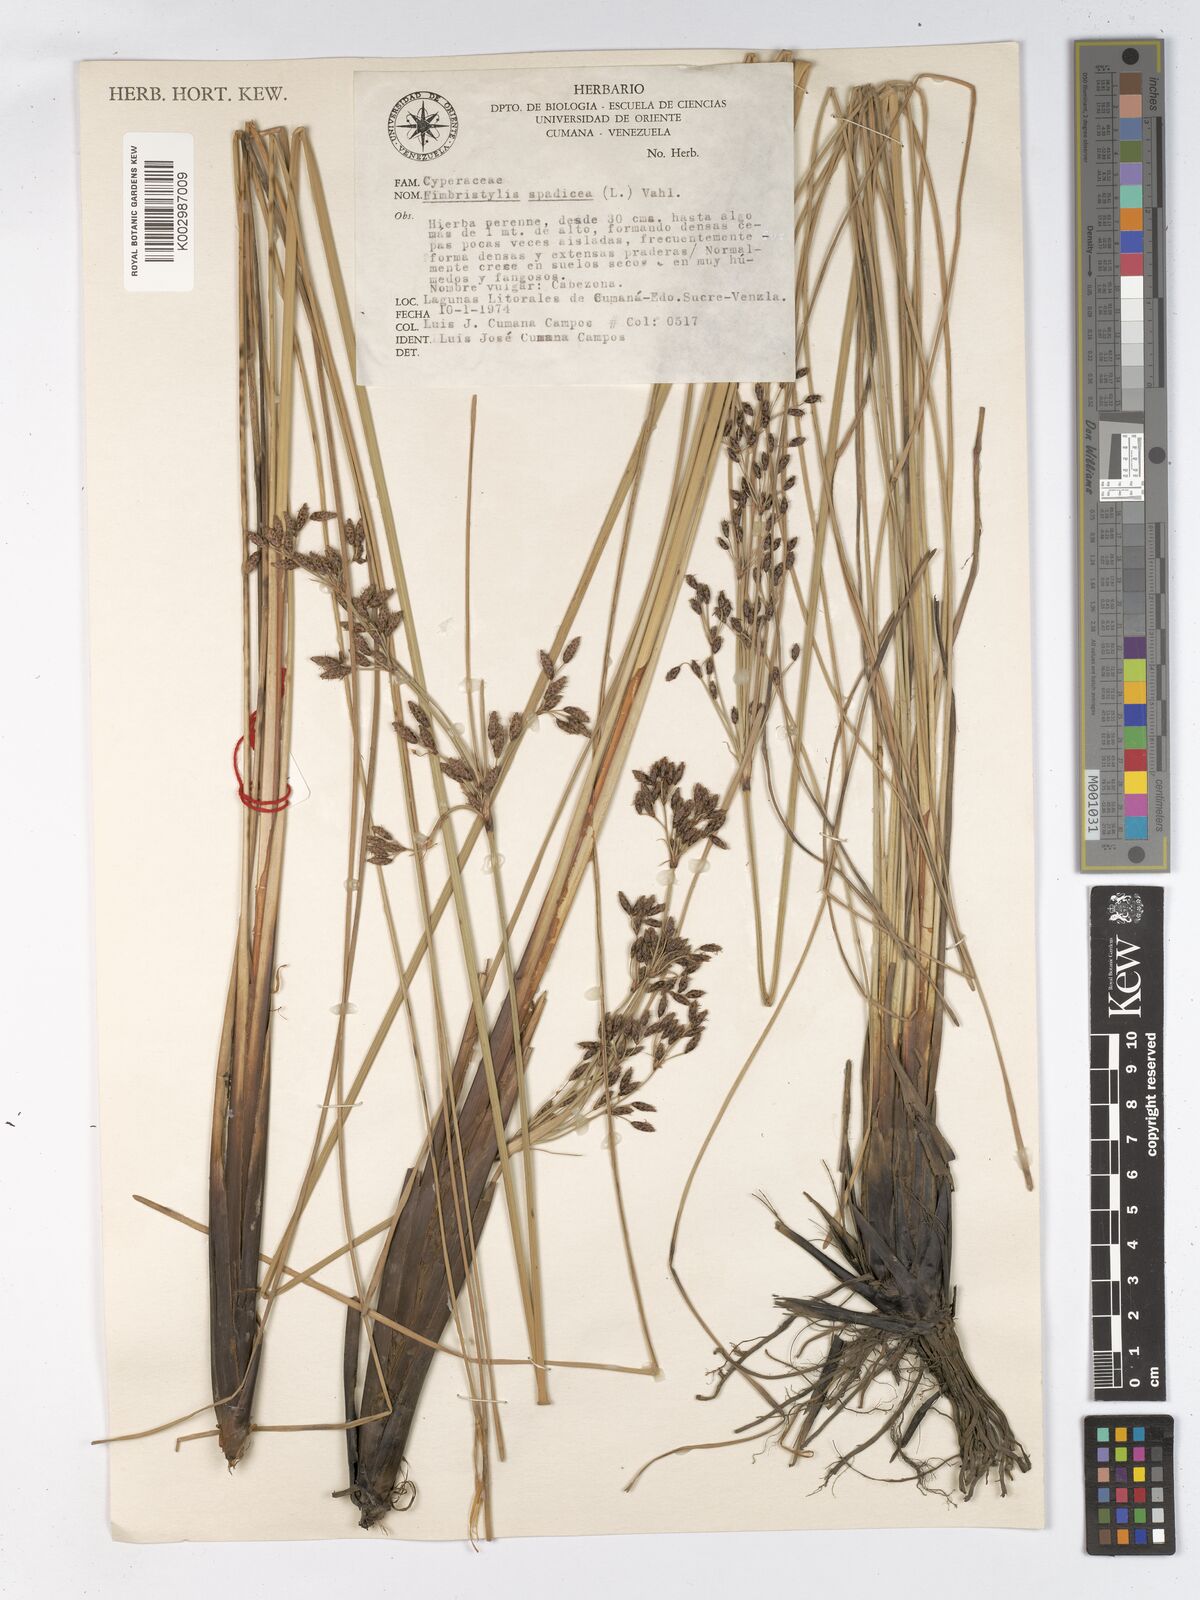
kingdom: Plantae
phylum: Tracheophyta
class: Liliopsida
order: Poales
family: Cyperaceae
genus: Fimbristylis
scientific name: Fimbristylis spadicea
